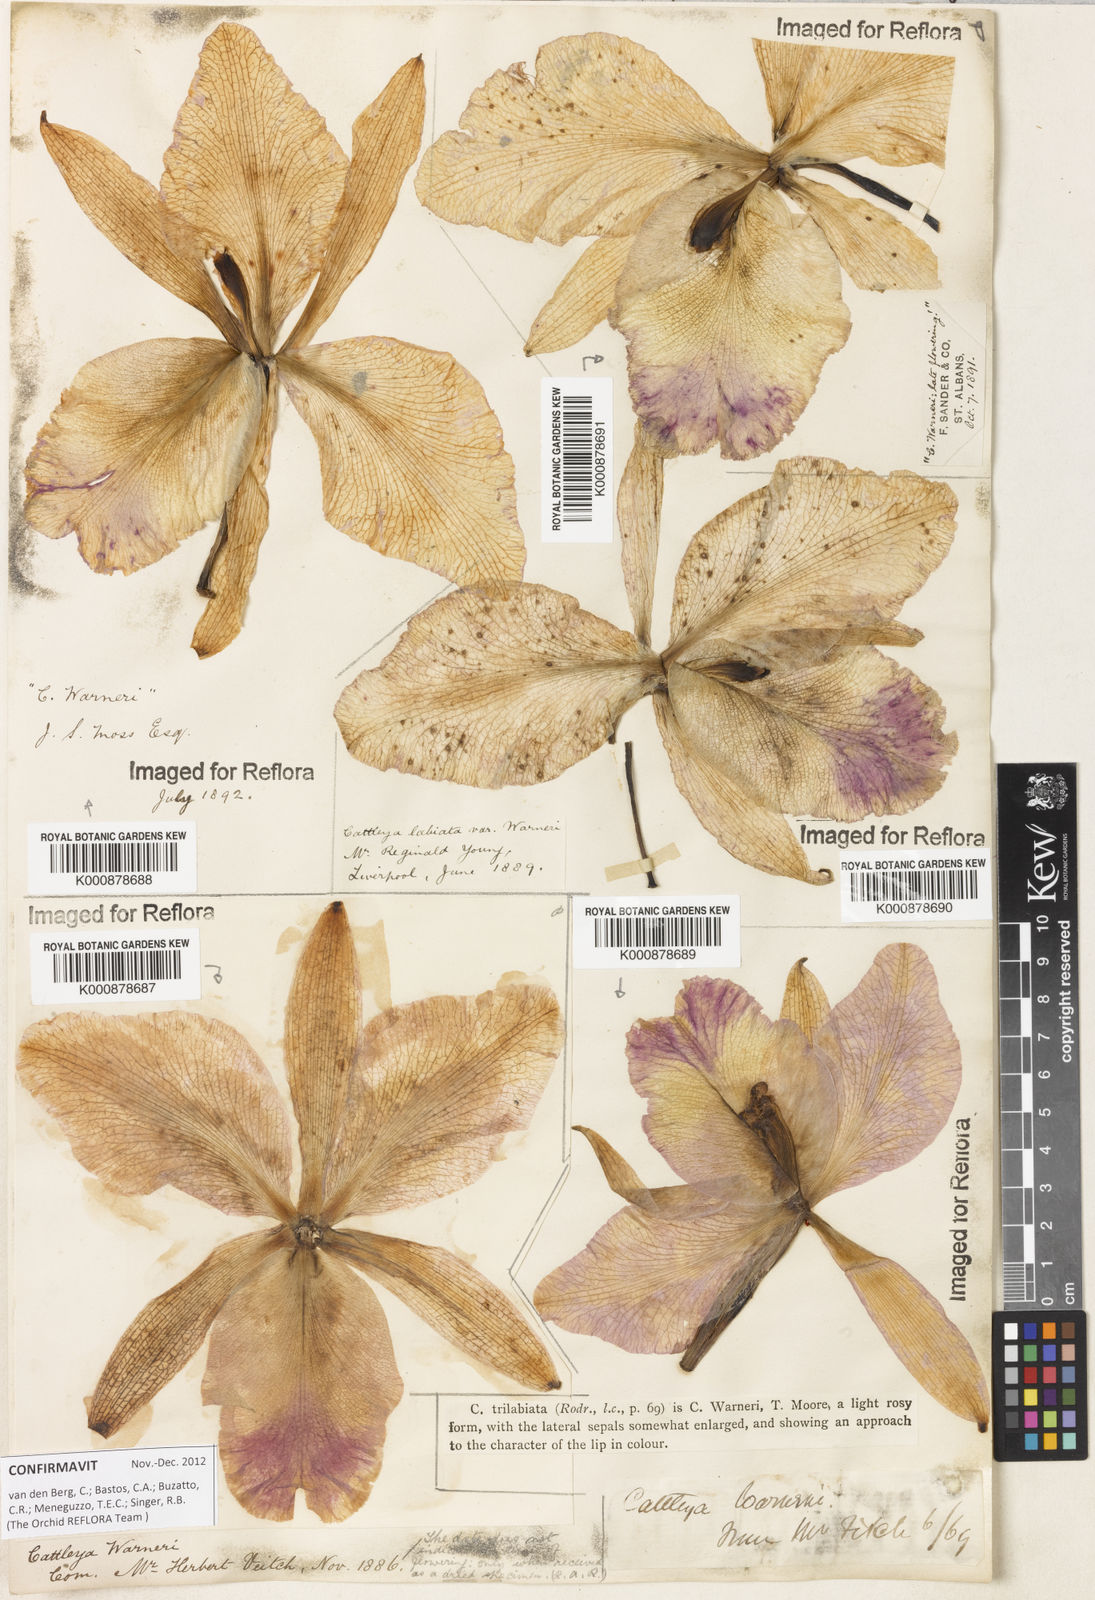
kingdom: Plantae
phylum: Tracheophyta
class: Liliopsida
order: Asparagales
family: Orchidaceae
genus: Cattleya
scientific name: Cattleya
